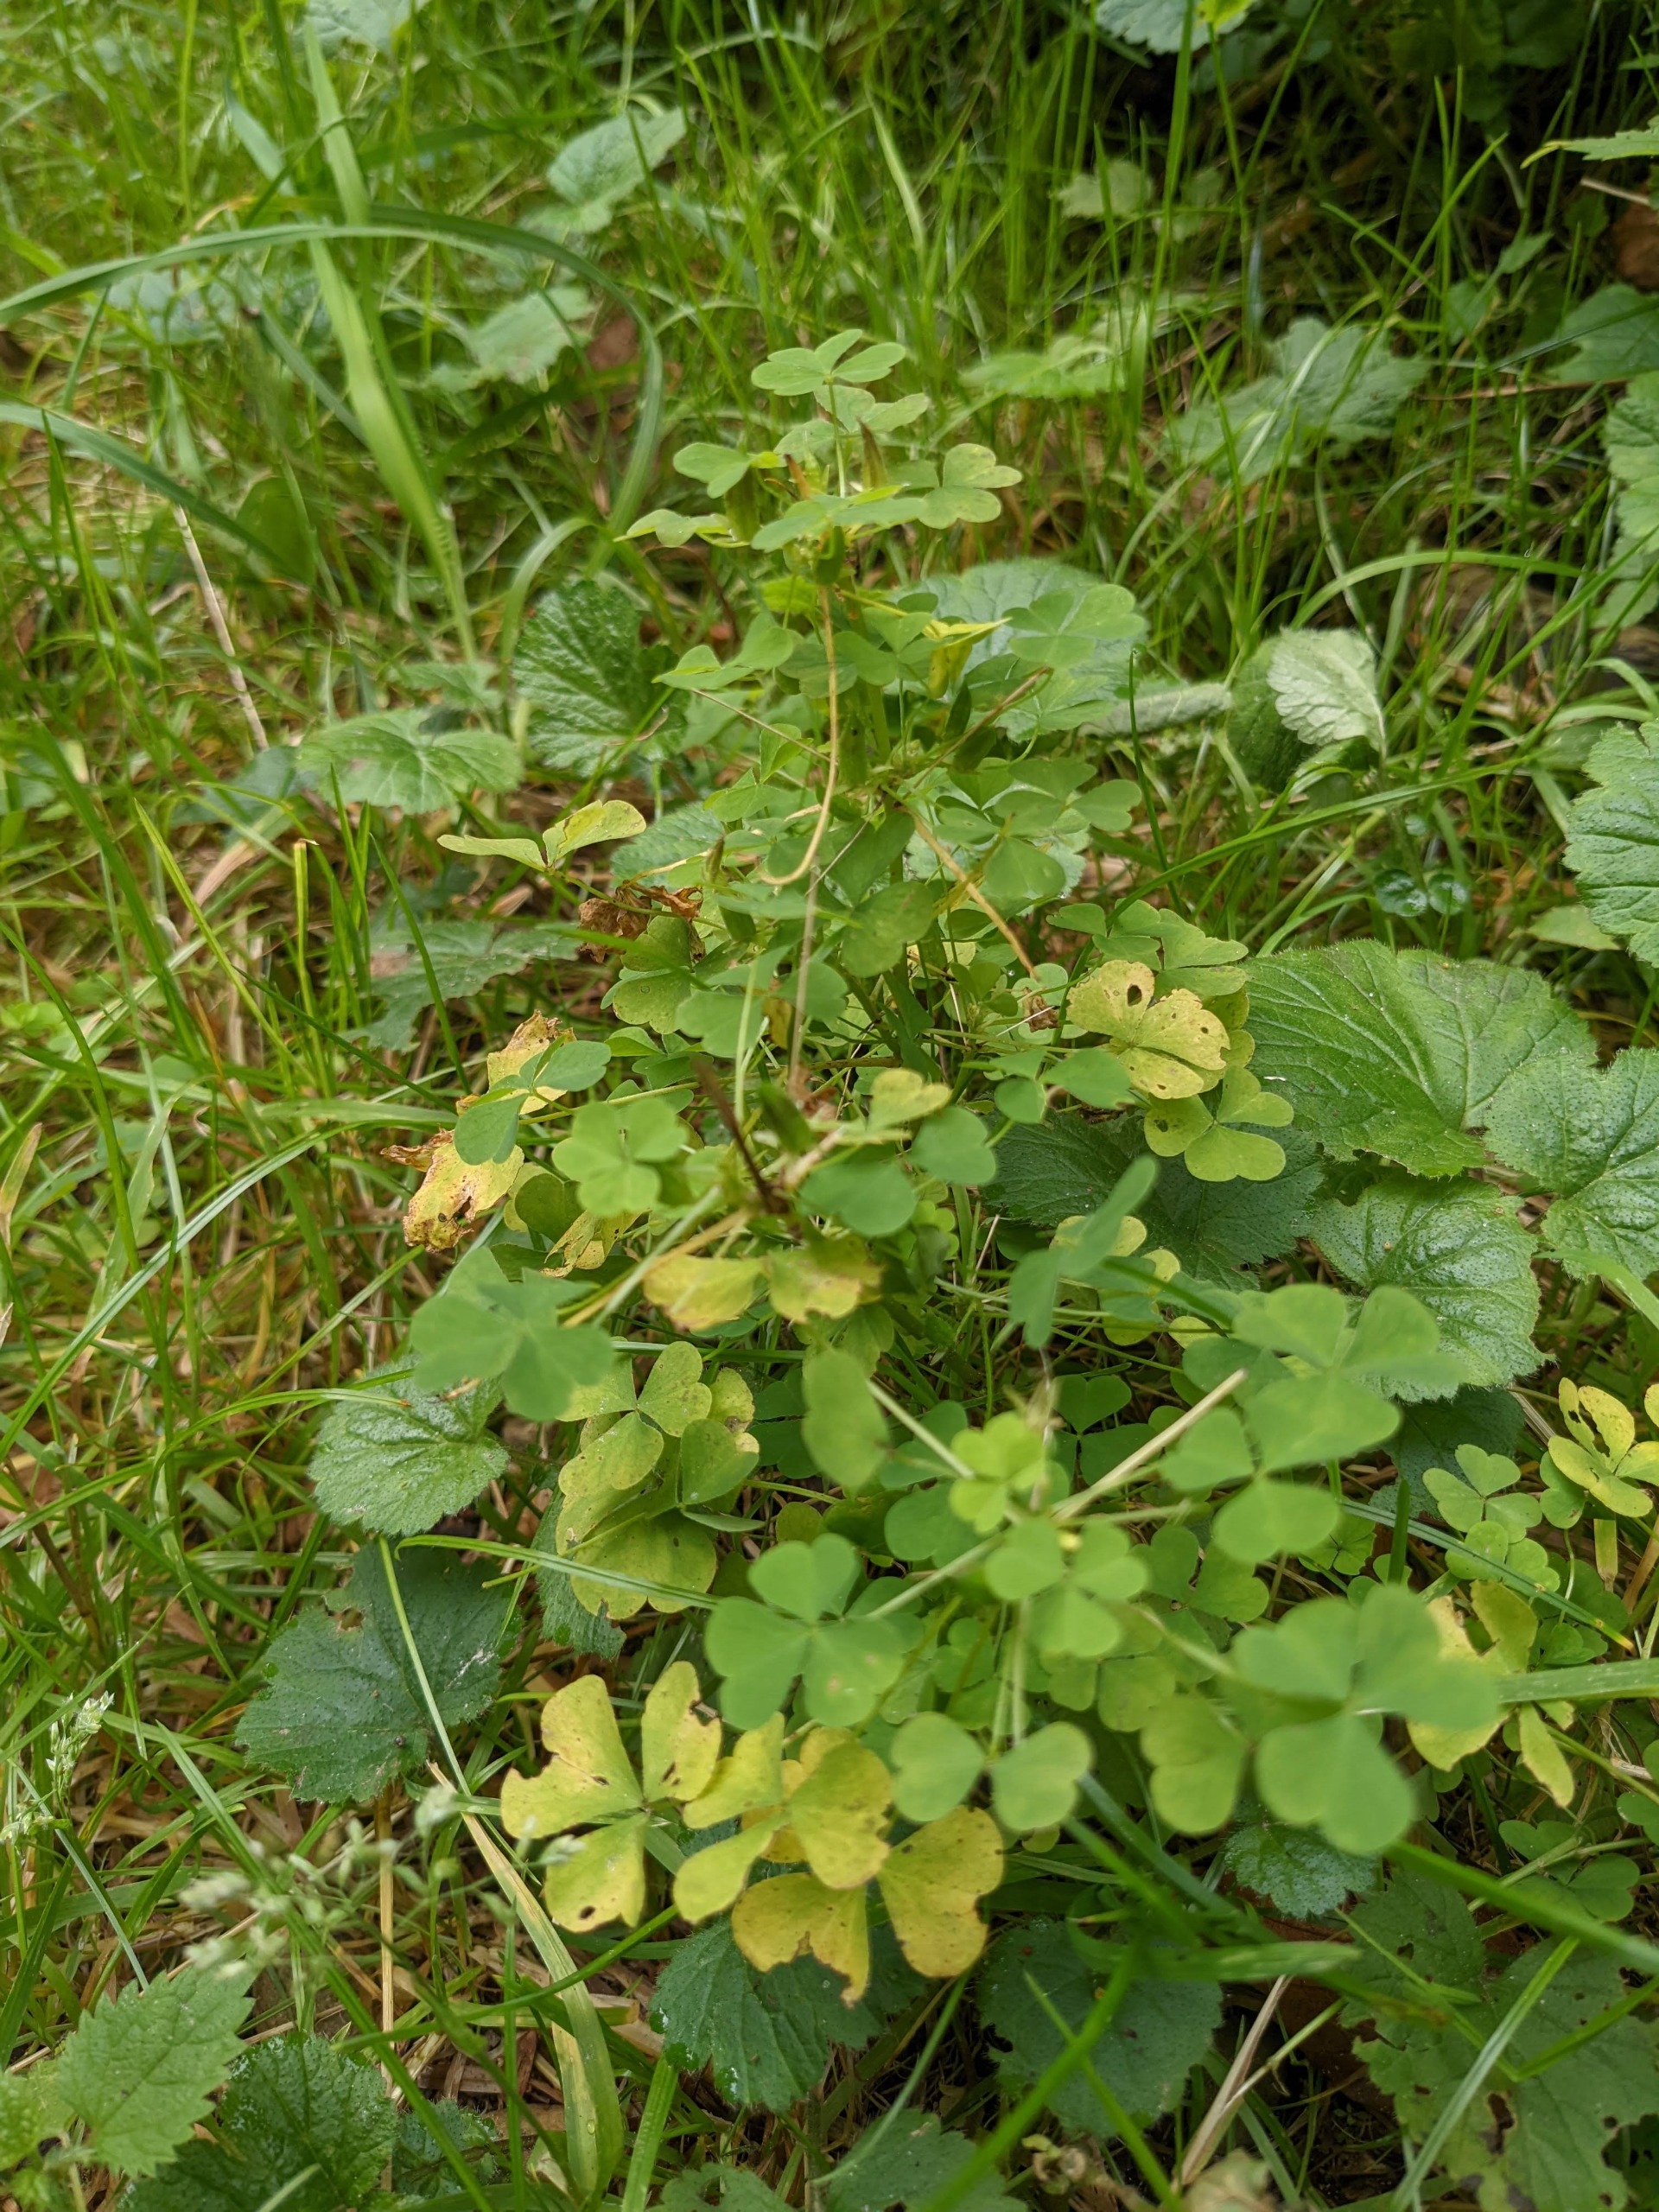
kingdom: Plantae
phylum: Tracheophyta
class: Magnoliopsida
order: Oxalidales
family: Oxalidaceae
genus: Oxalis
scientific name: Oxalis stricta
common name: Rank surkløver
